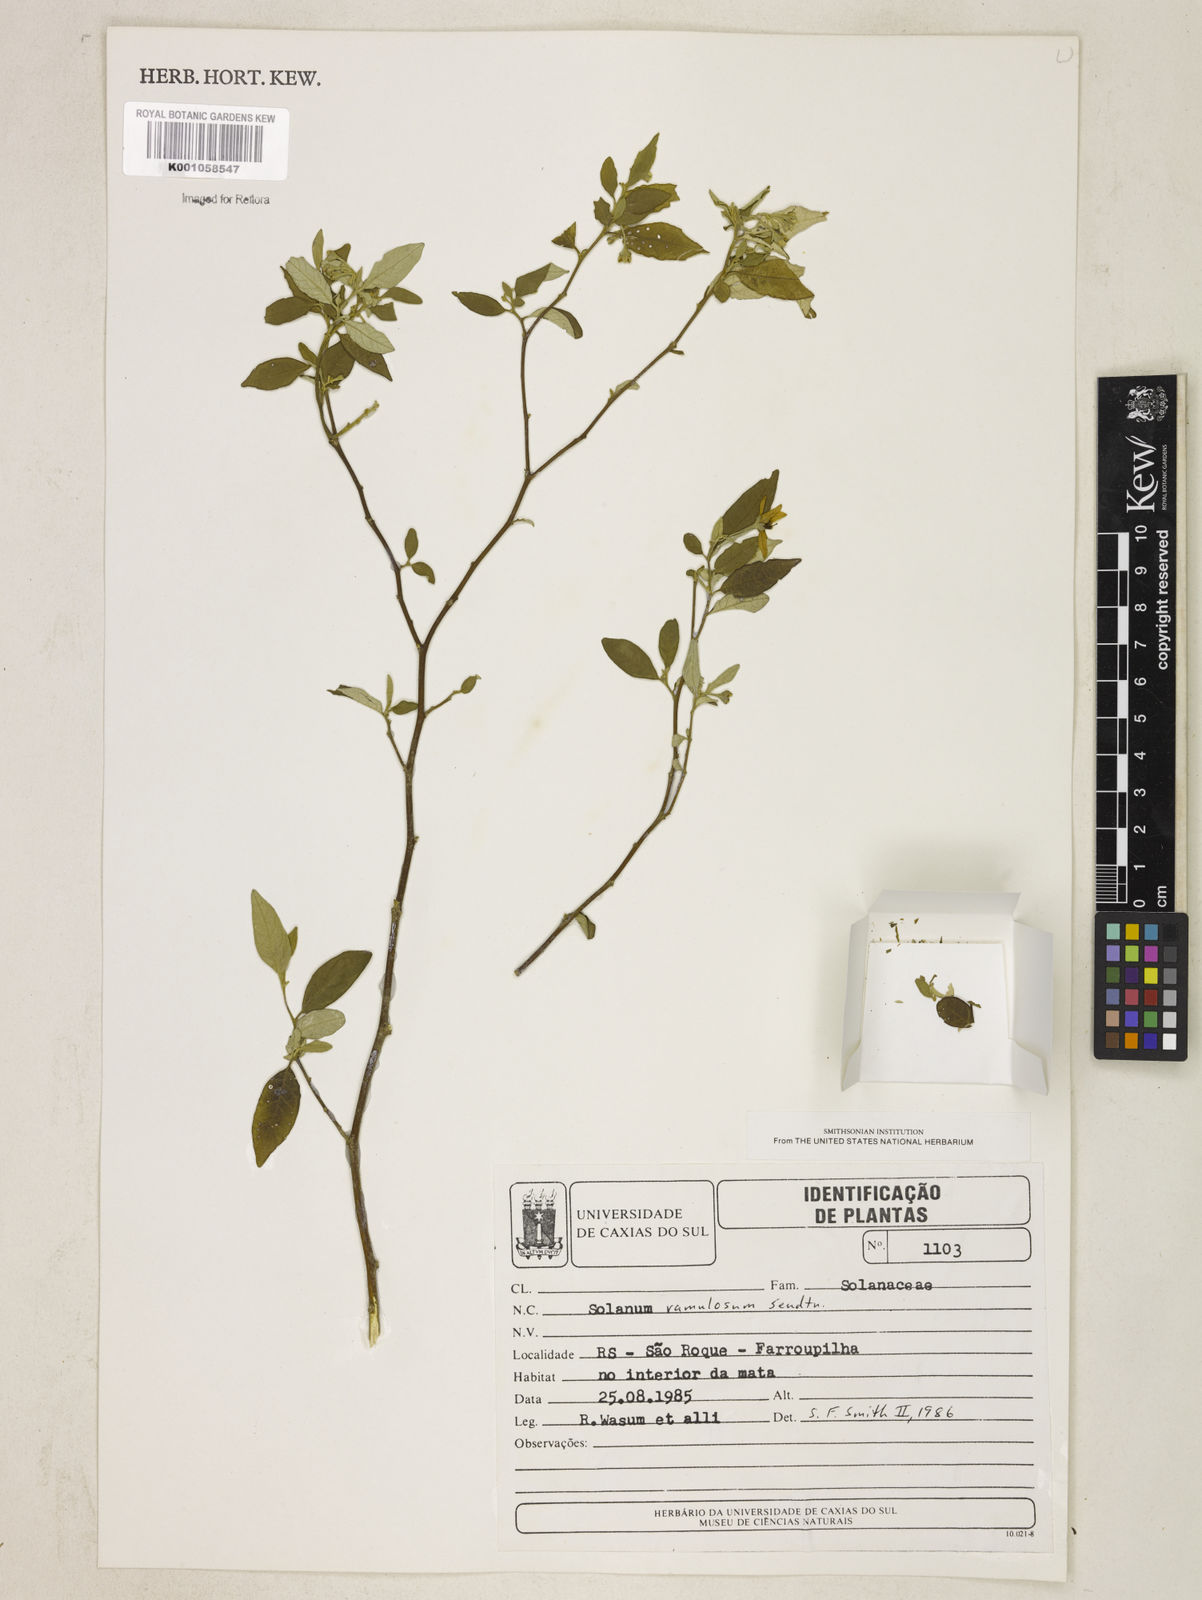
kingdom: Plantae
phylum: Tracheophyta
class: Magnoliopsida
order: Solanales
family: Solanaceae
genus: Solanum
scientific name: Solanum ramulosum
